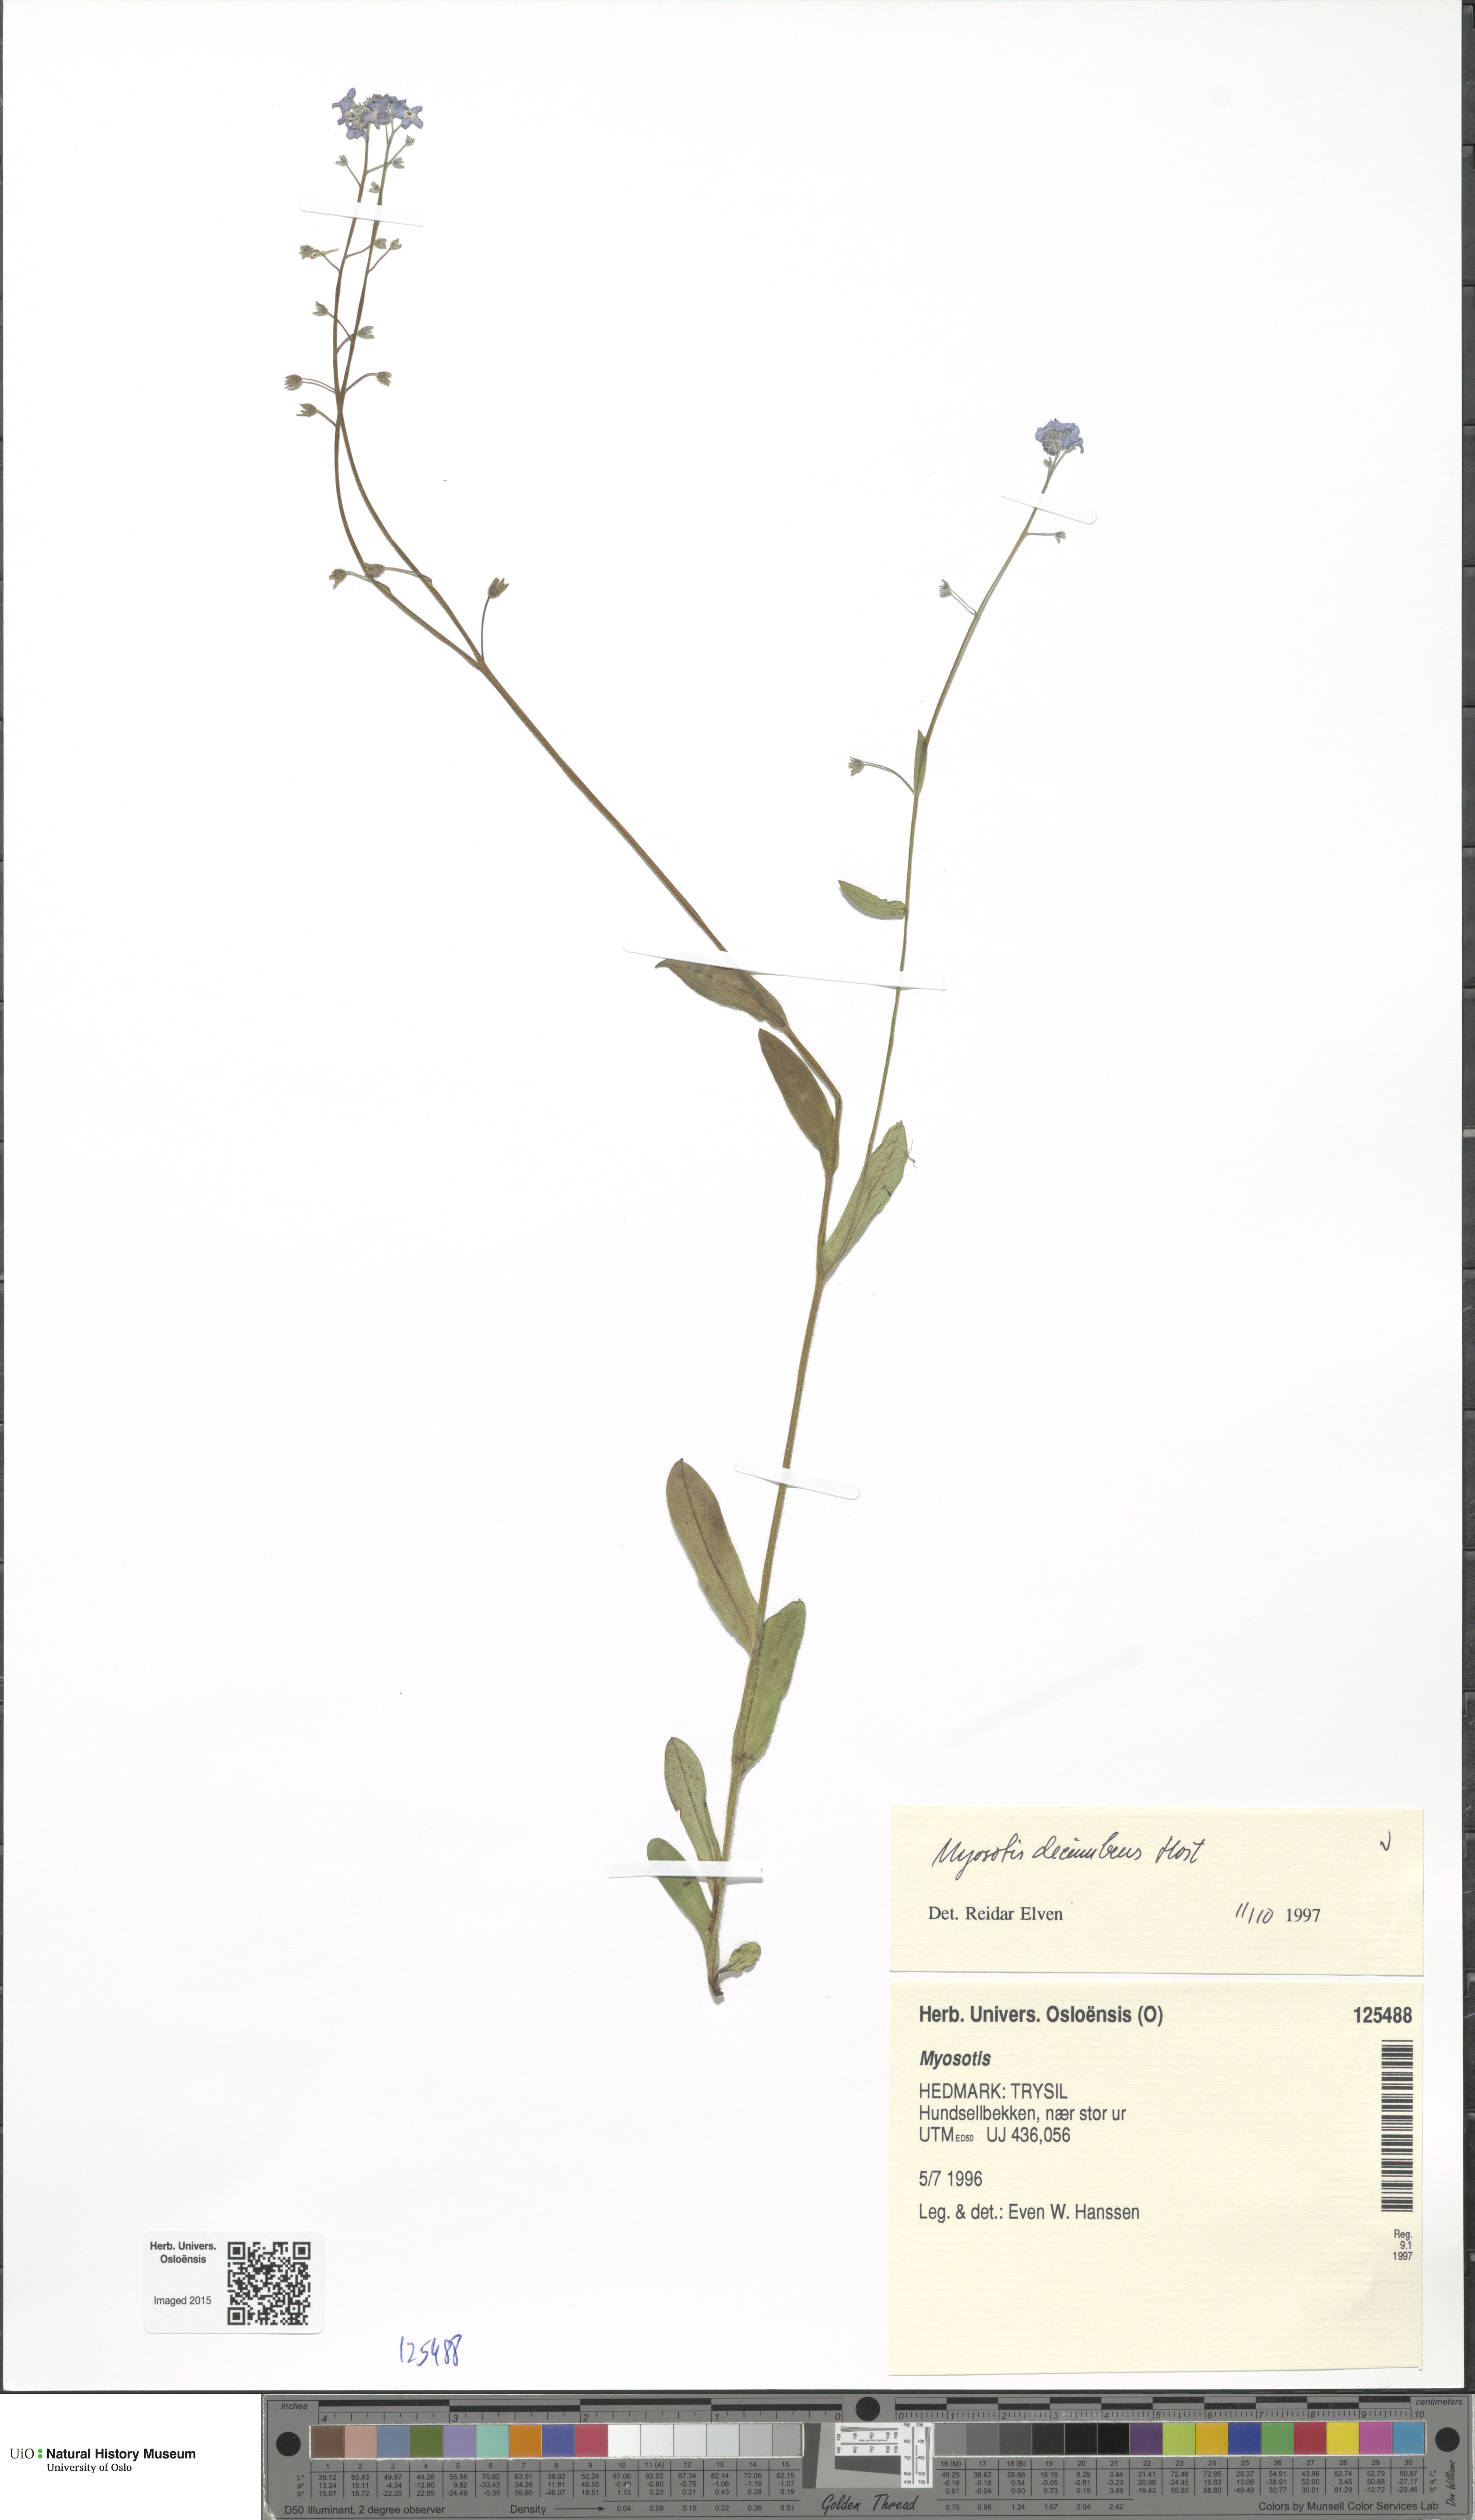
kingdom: Plantae
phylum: Tracheophyta
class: Magnoliopsida
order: Boraginales
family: Boraginaceae
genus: Myosotis
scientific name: Myosotis decumbens
